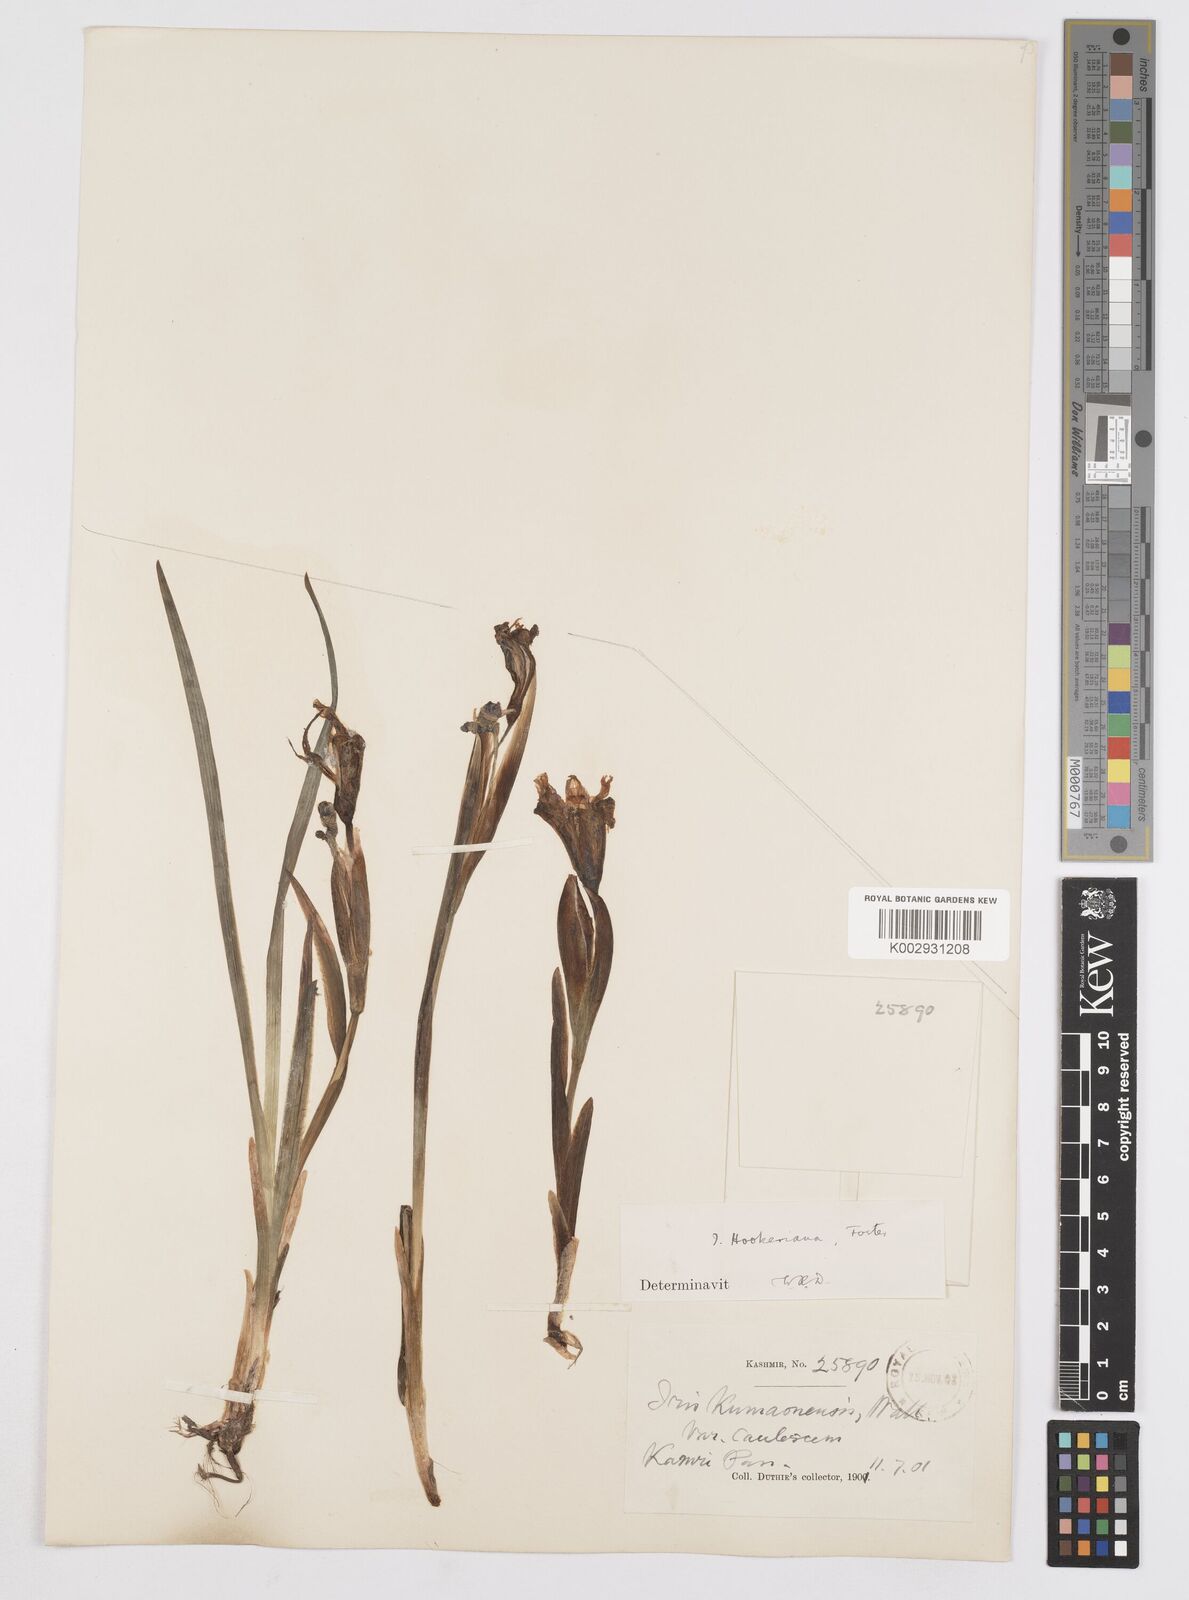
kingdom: Plantae
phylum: Tracheophyta
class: Liliopsida
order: Asparagales
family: Iridaceae
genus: Iris
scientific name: Iris hookeriana
